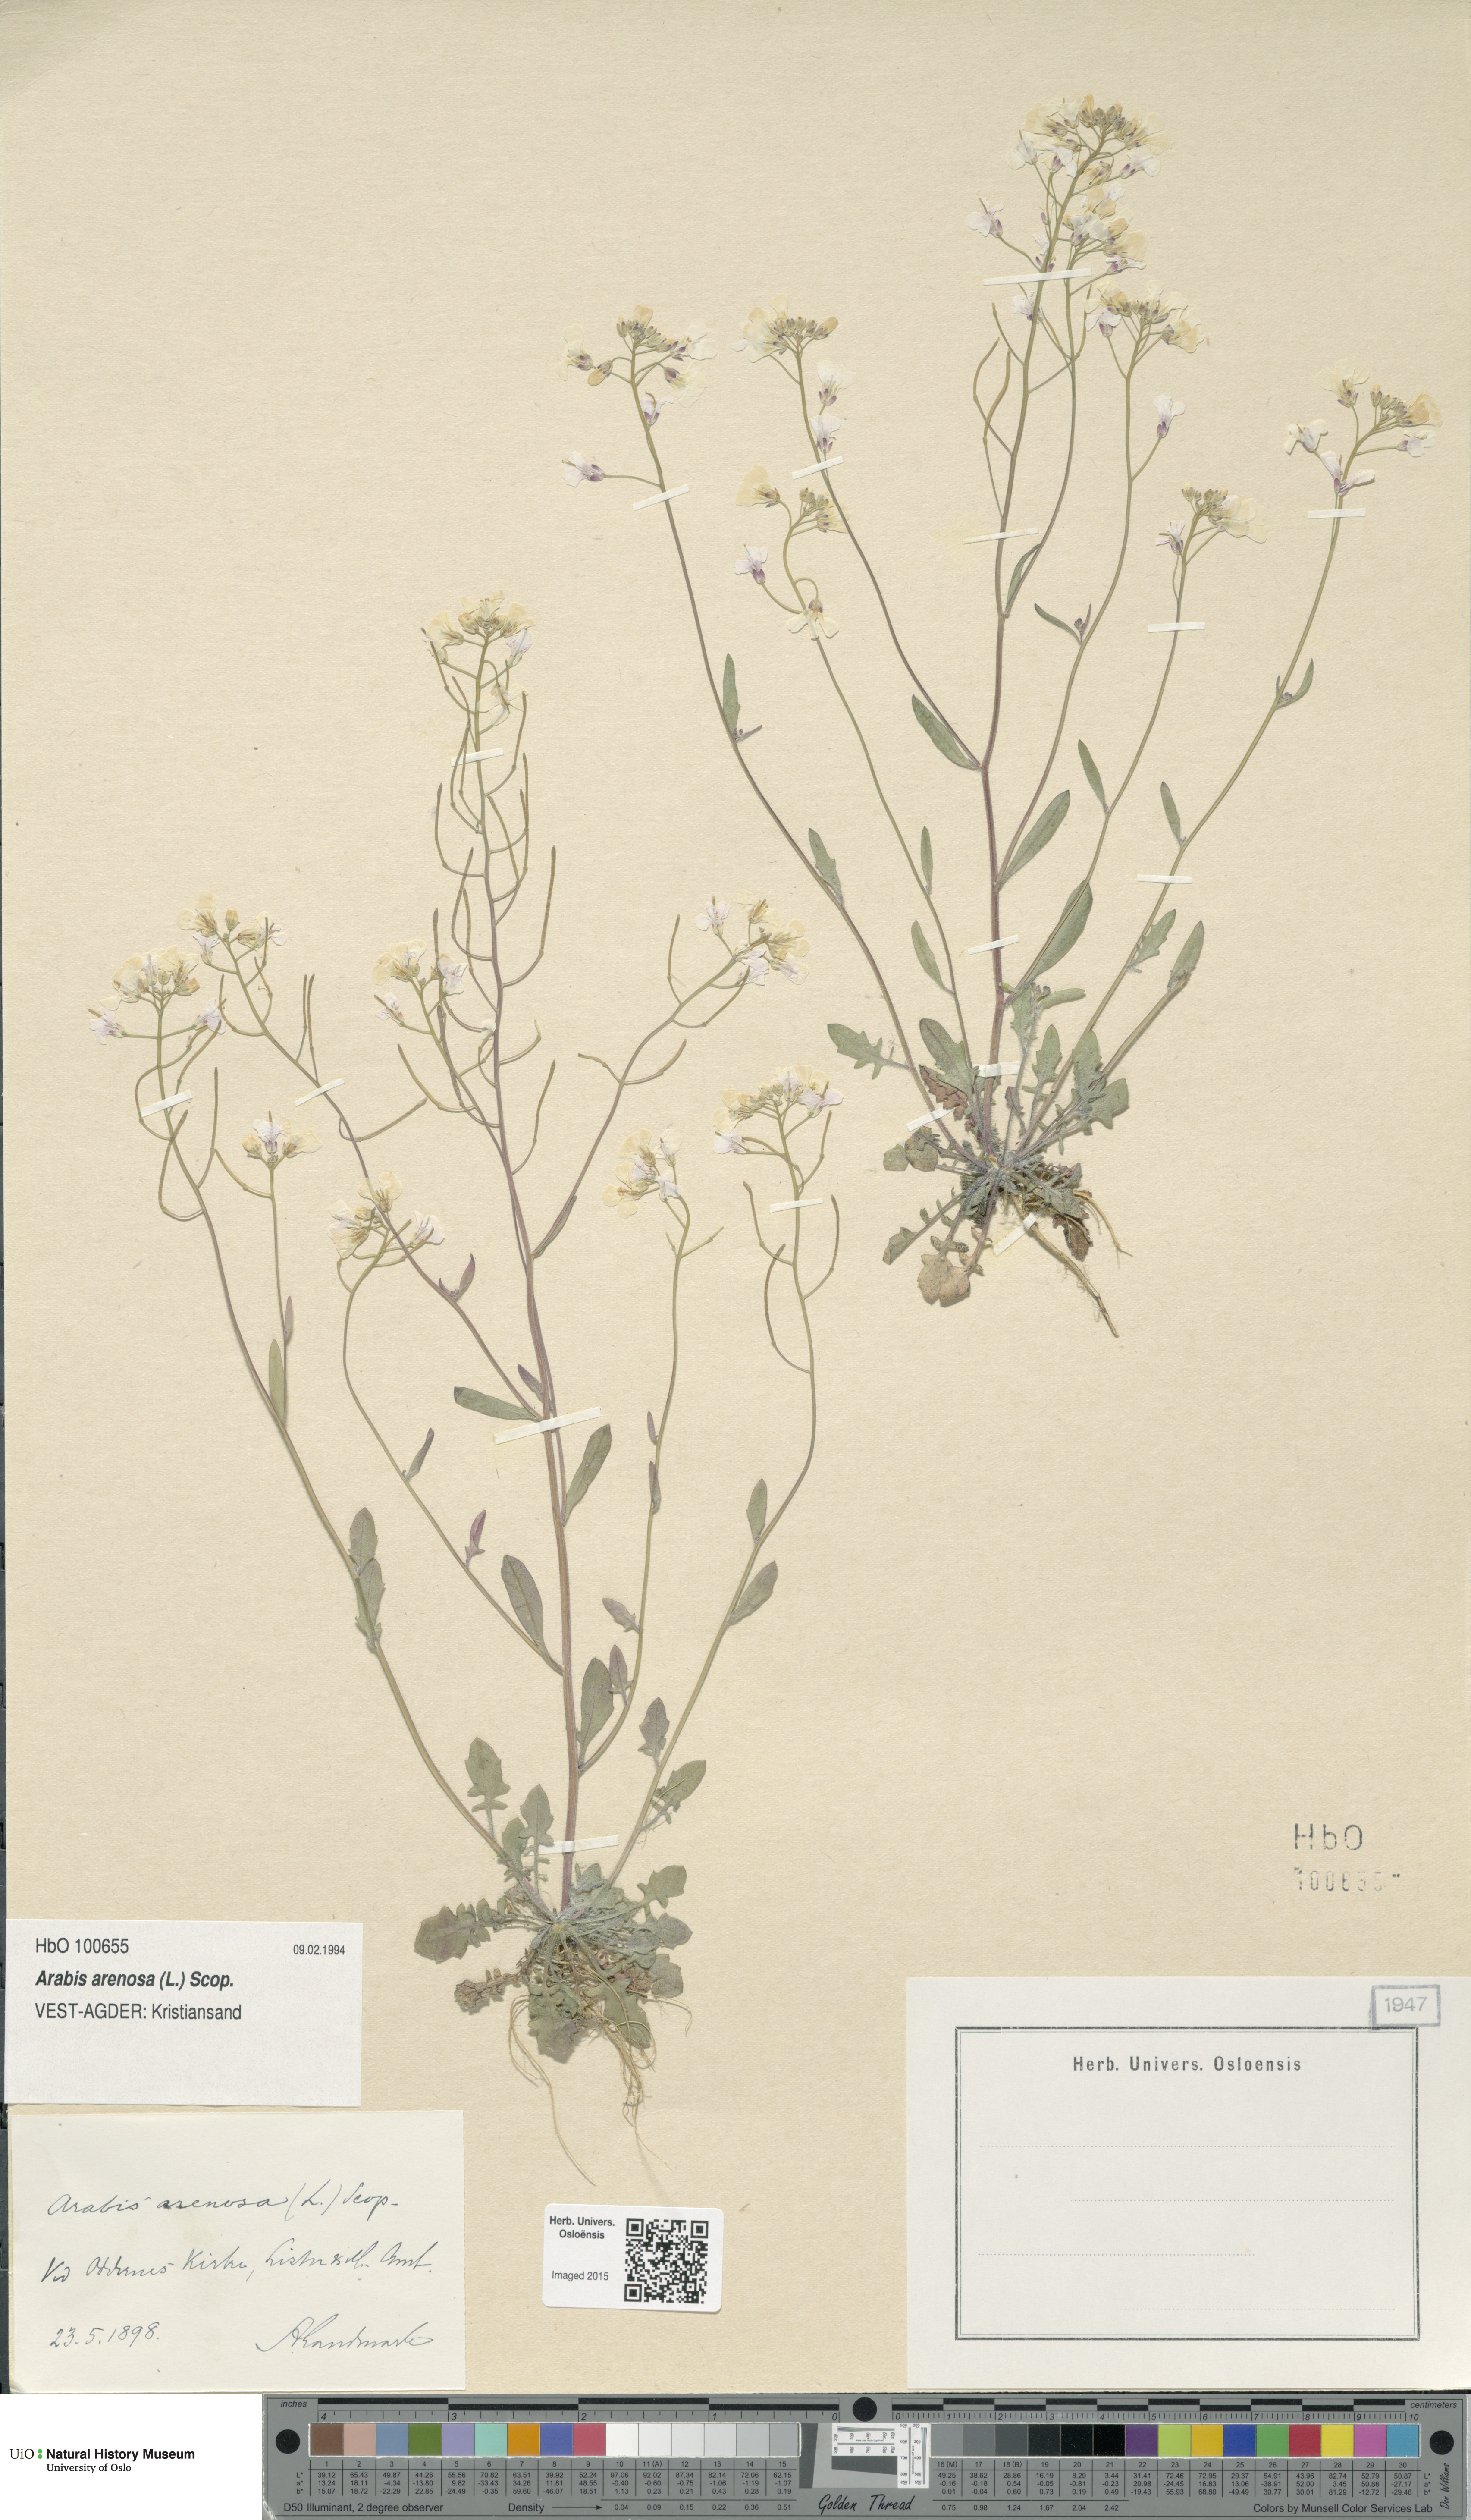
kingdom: Plantae
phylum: Tracheophyta
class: Magnoliopsida
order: Brassicales
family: Brassicaceae
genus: Arabidopsis
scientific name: Arabidopsis arenosa
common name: Sand rock-cress
